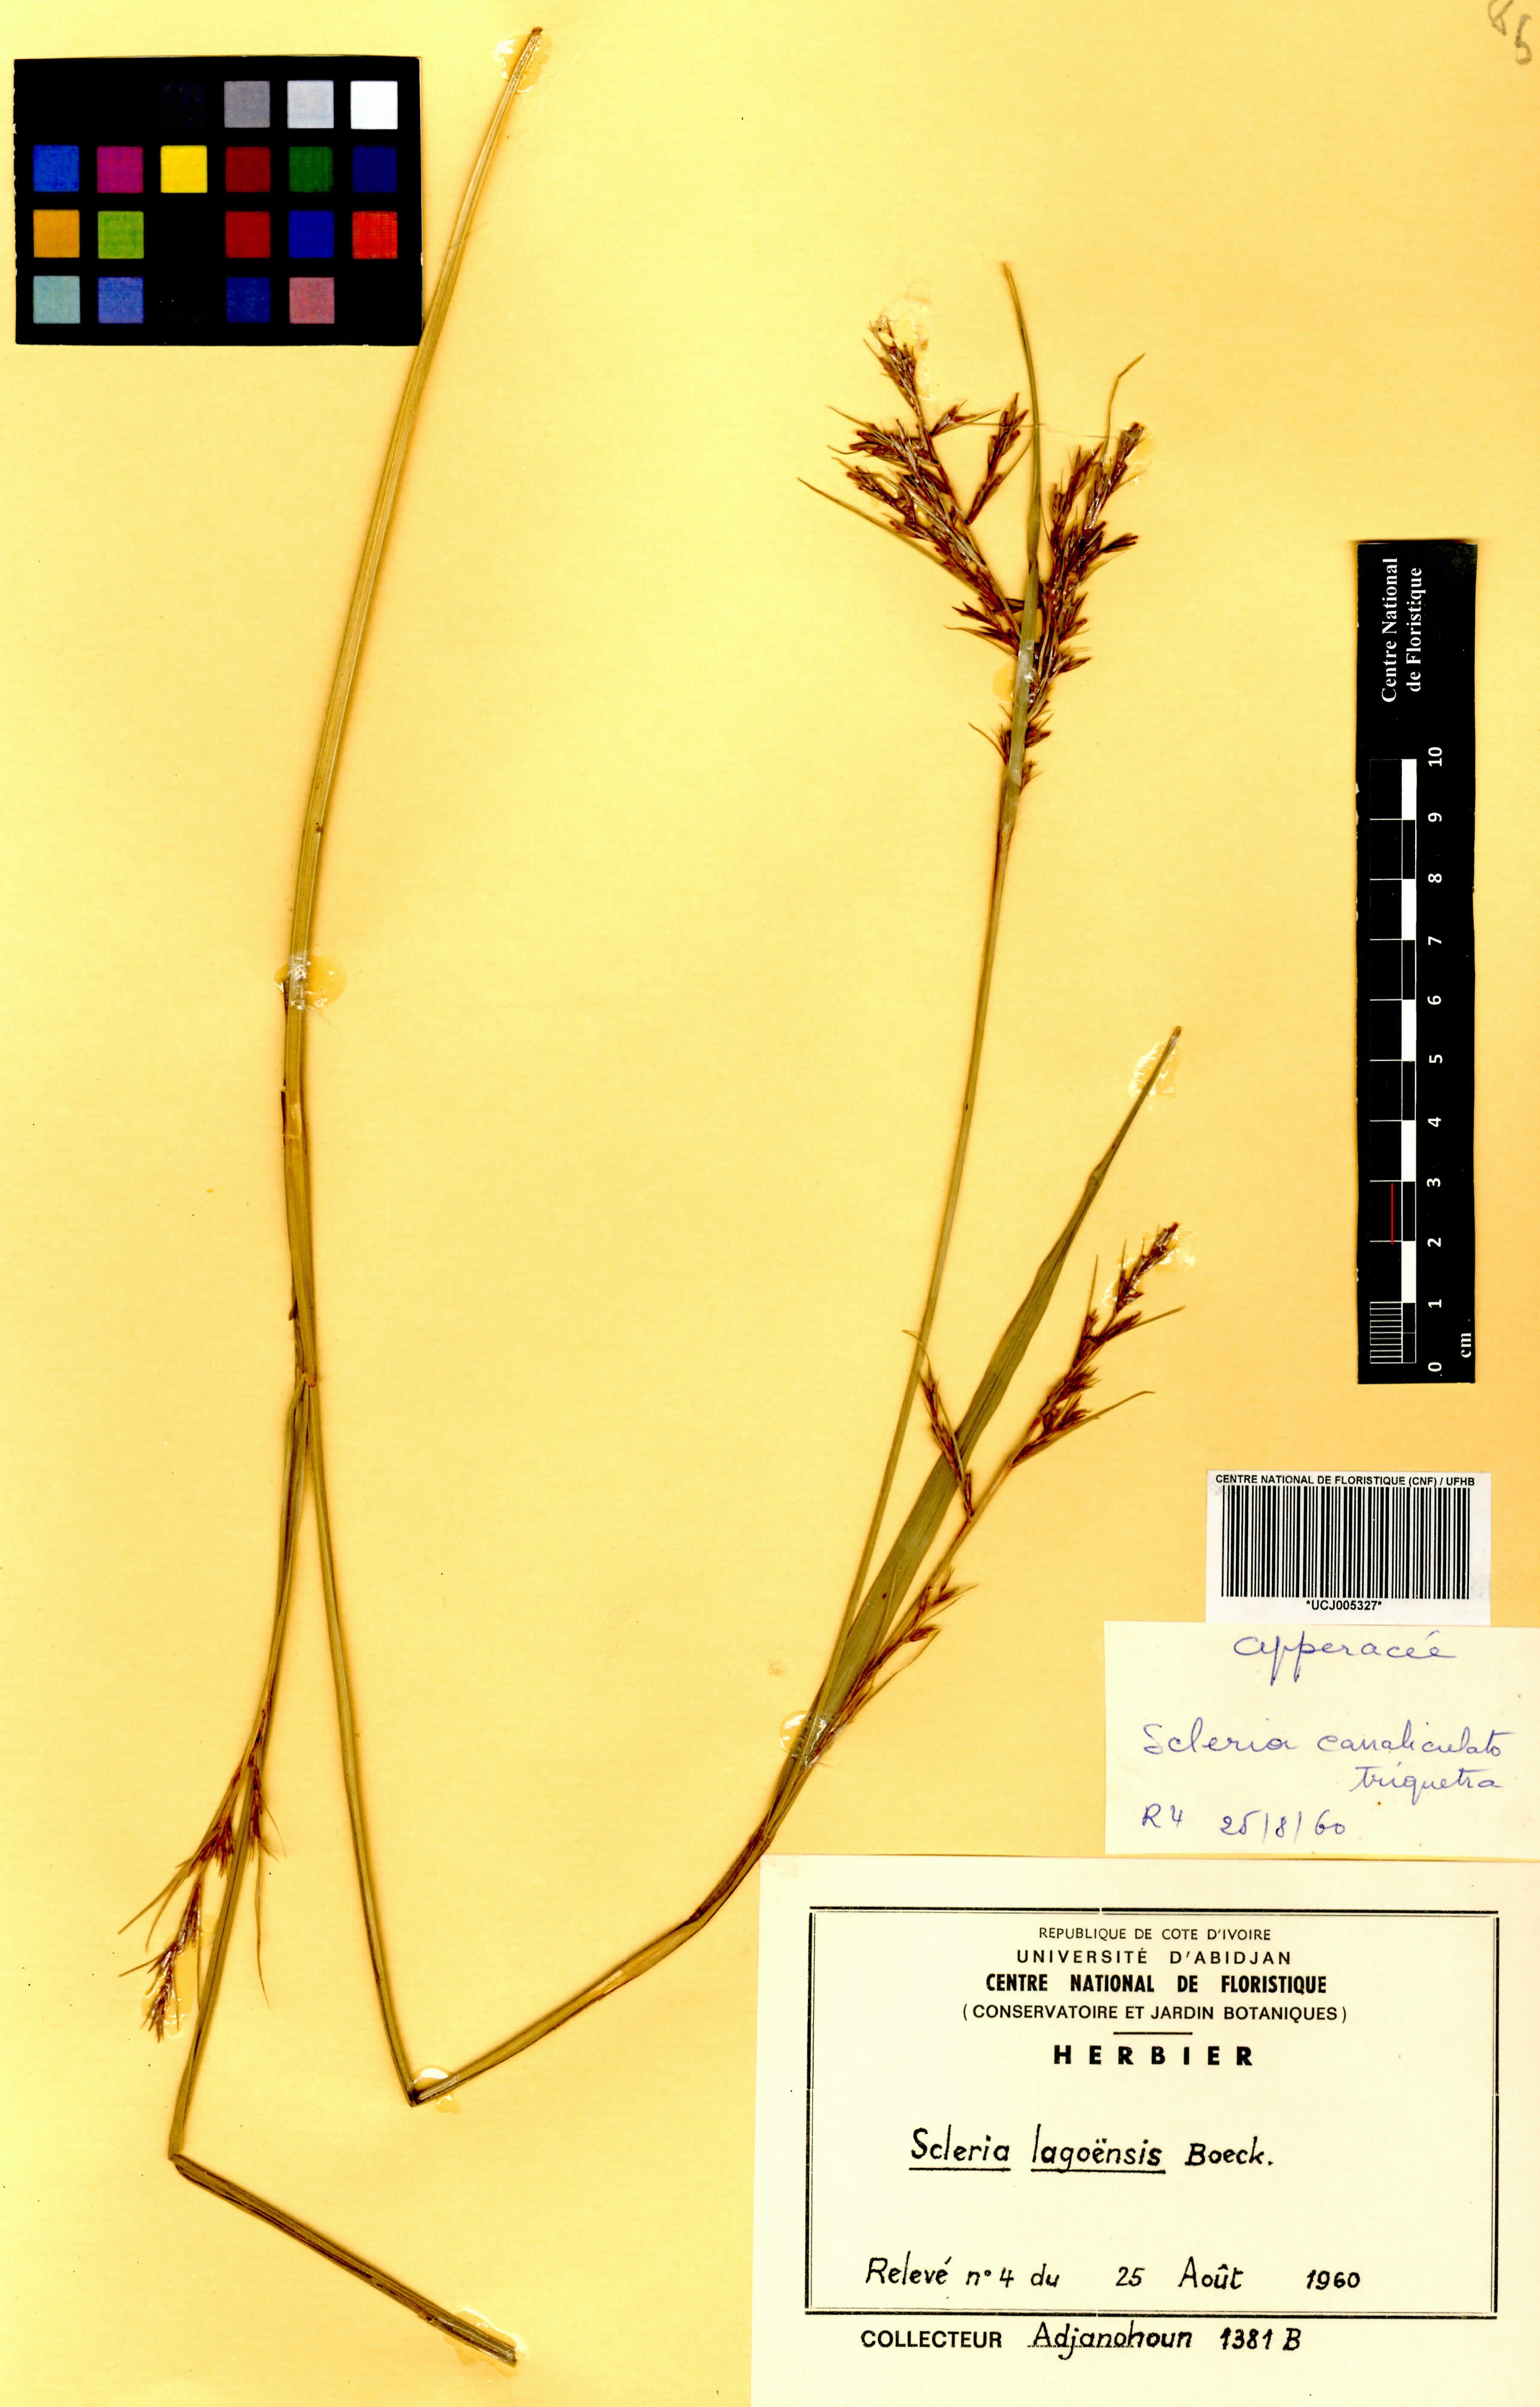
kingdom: Plantae
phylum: Tracheophyta
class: Liliopsida
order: Poales
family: Cyperaceae
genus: Scleria
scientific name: Scleria lagoensis
